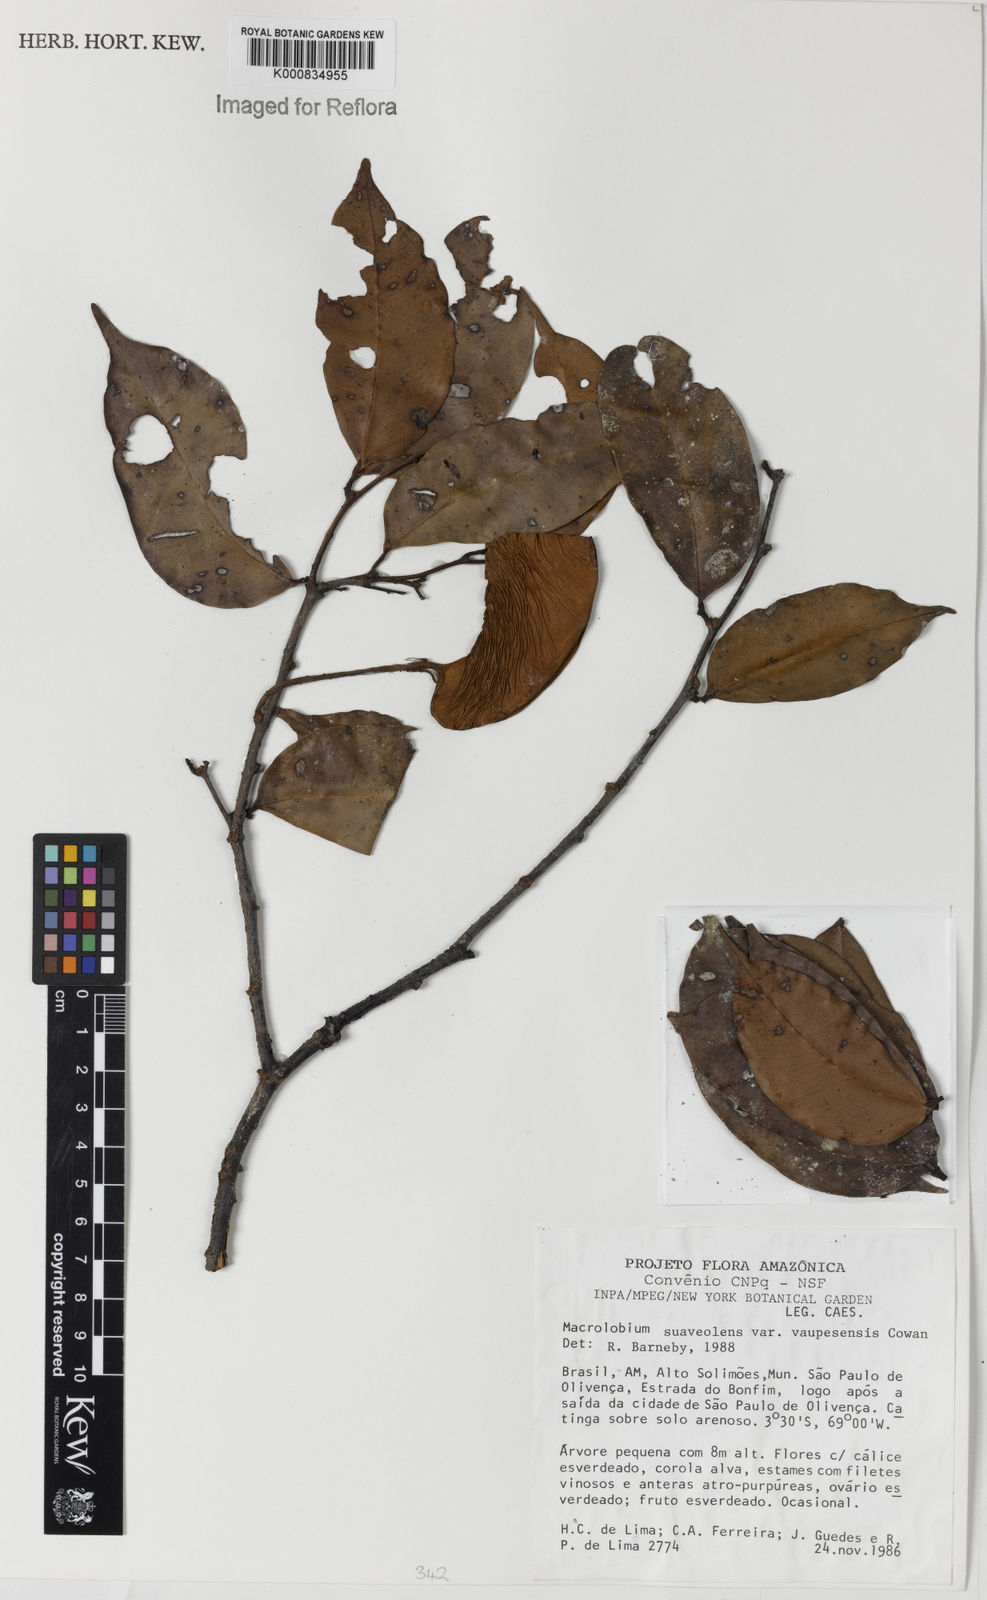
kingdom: Plantae
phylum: Tracheophyta
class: Magnoliopsida
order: Fabales
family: Fabaceae
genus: Macrolobium
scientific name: Macrolobium suaveolens
